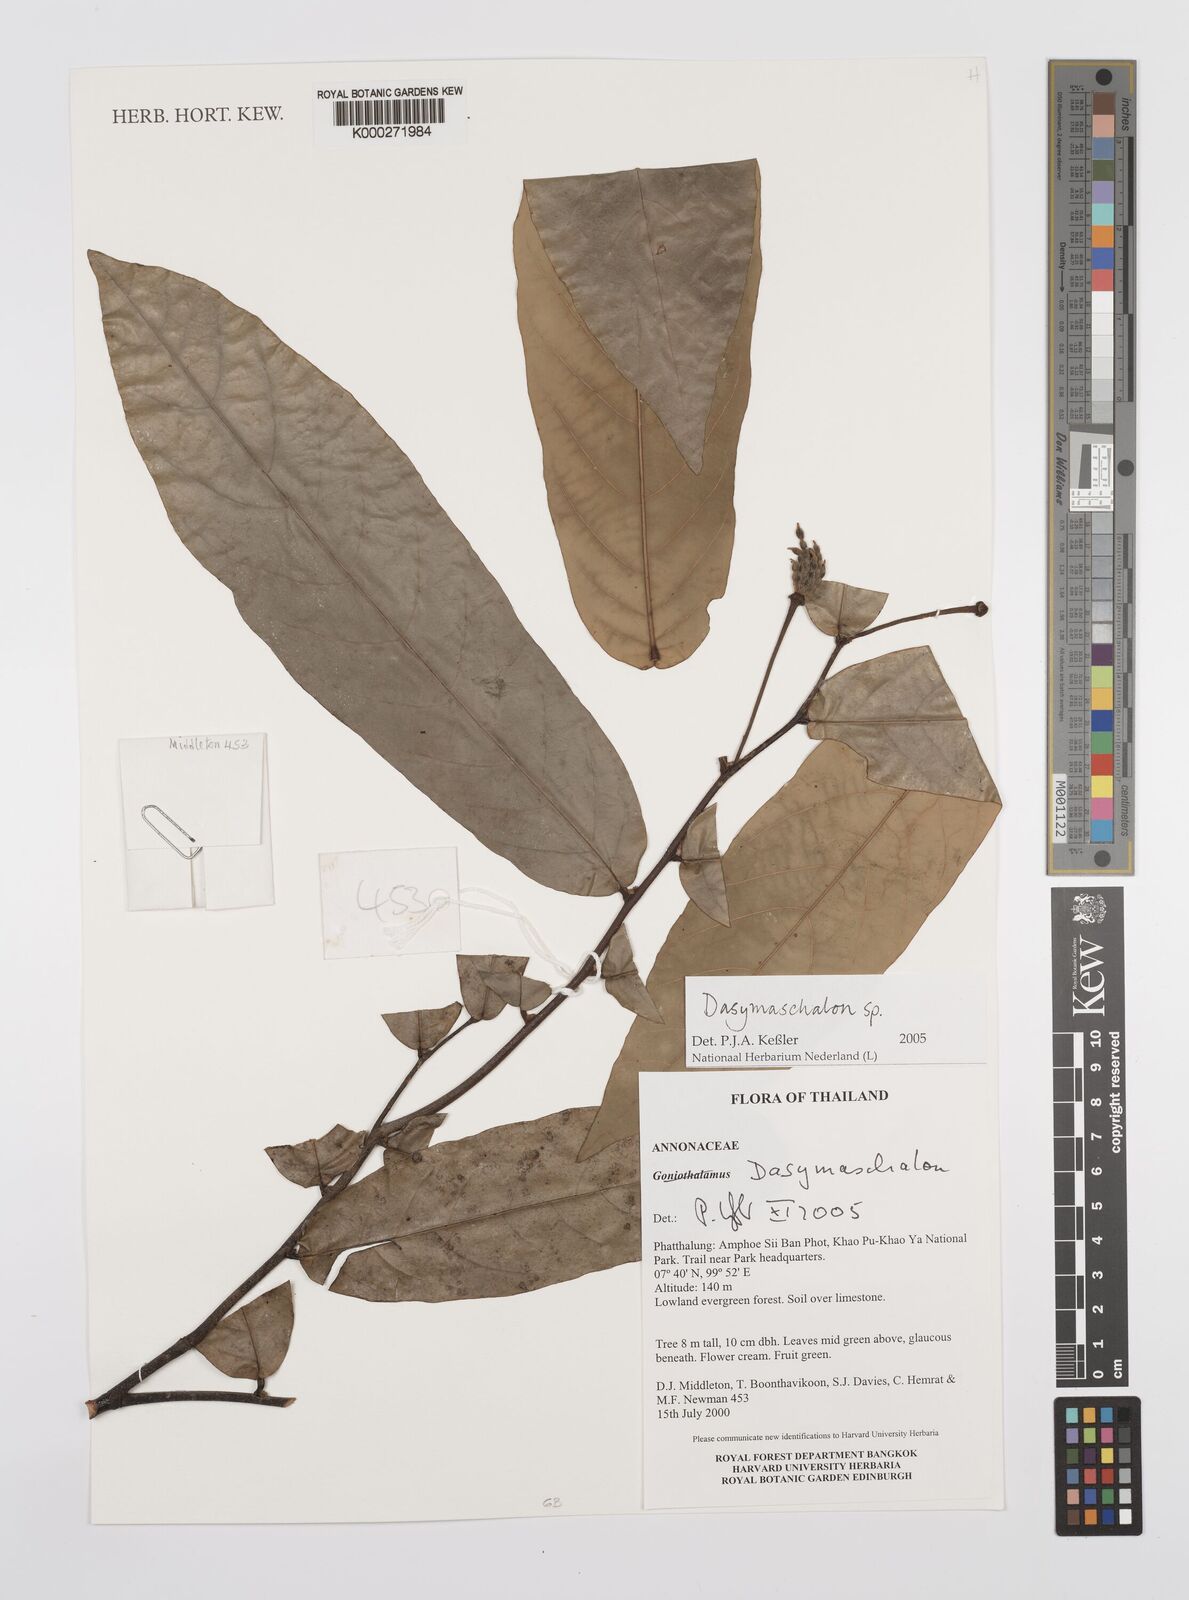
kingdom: Plantae
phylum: Tracheophyta
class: Magnoliopsida
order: Magnoliales
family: Annonaceae
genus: Dasymaschalon
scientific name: Dasymaschalon
